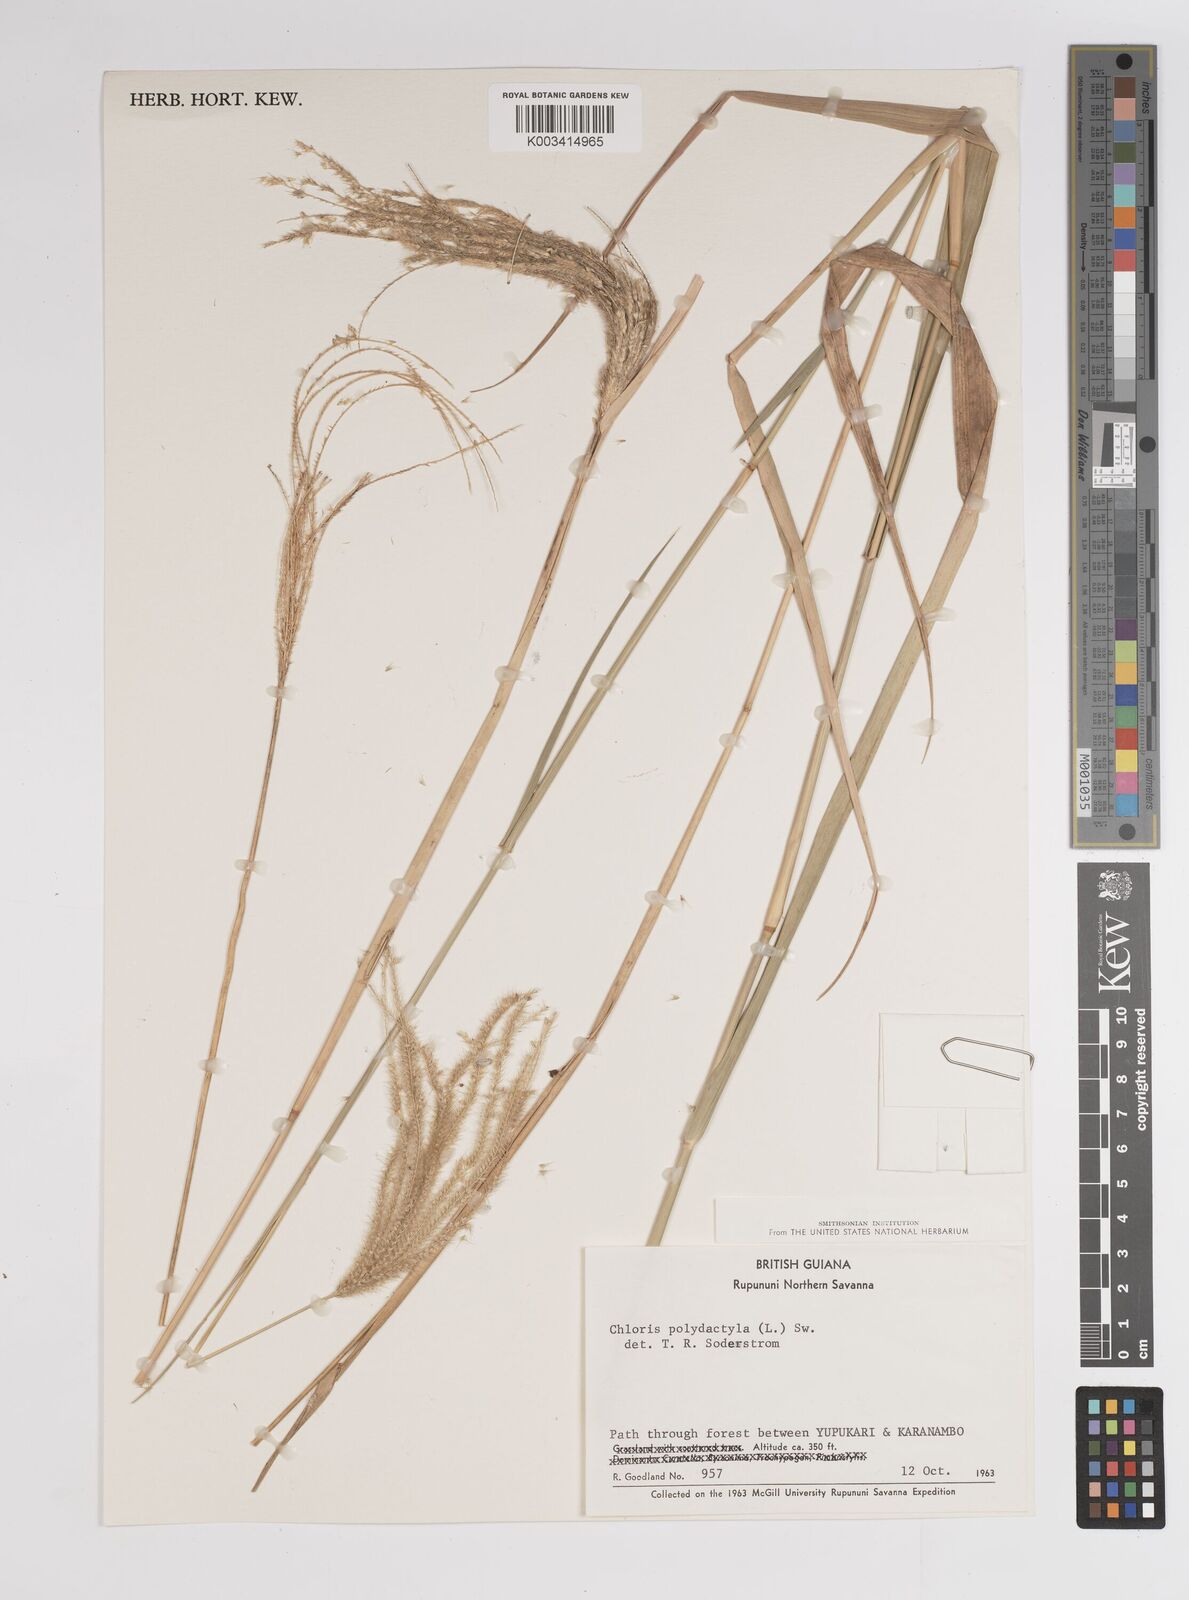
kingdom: Plantae
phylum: Tracheophyta
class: Liliopsida
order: Poales
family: Poaceae
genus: Stapfochloa
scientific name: Stapfochloa elata
